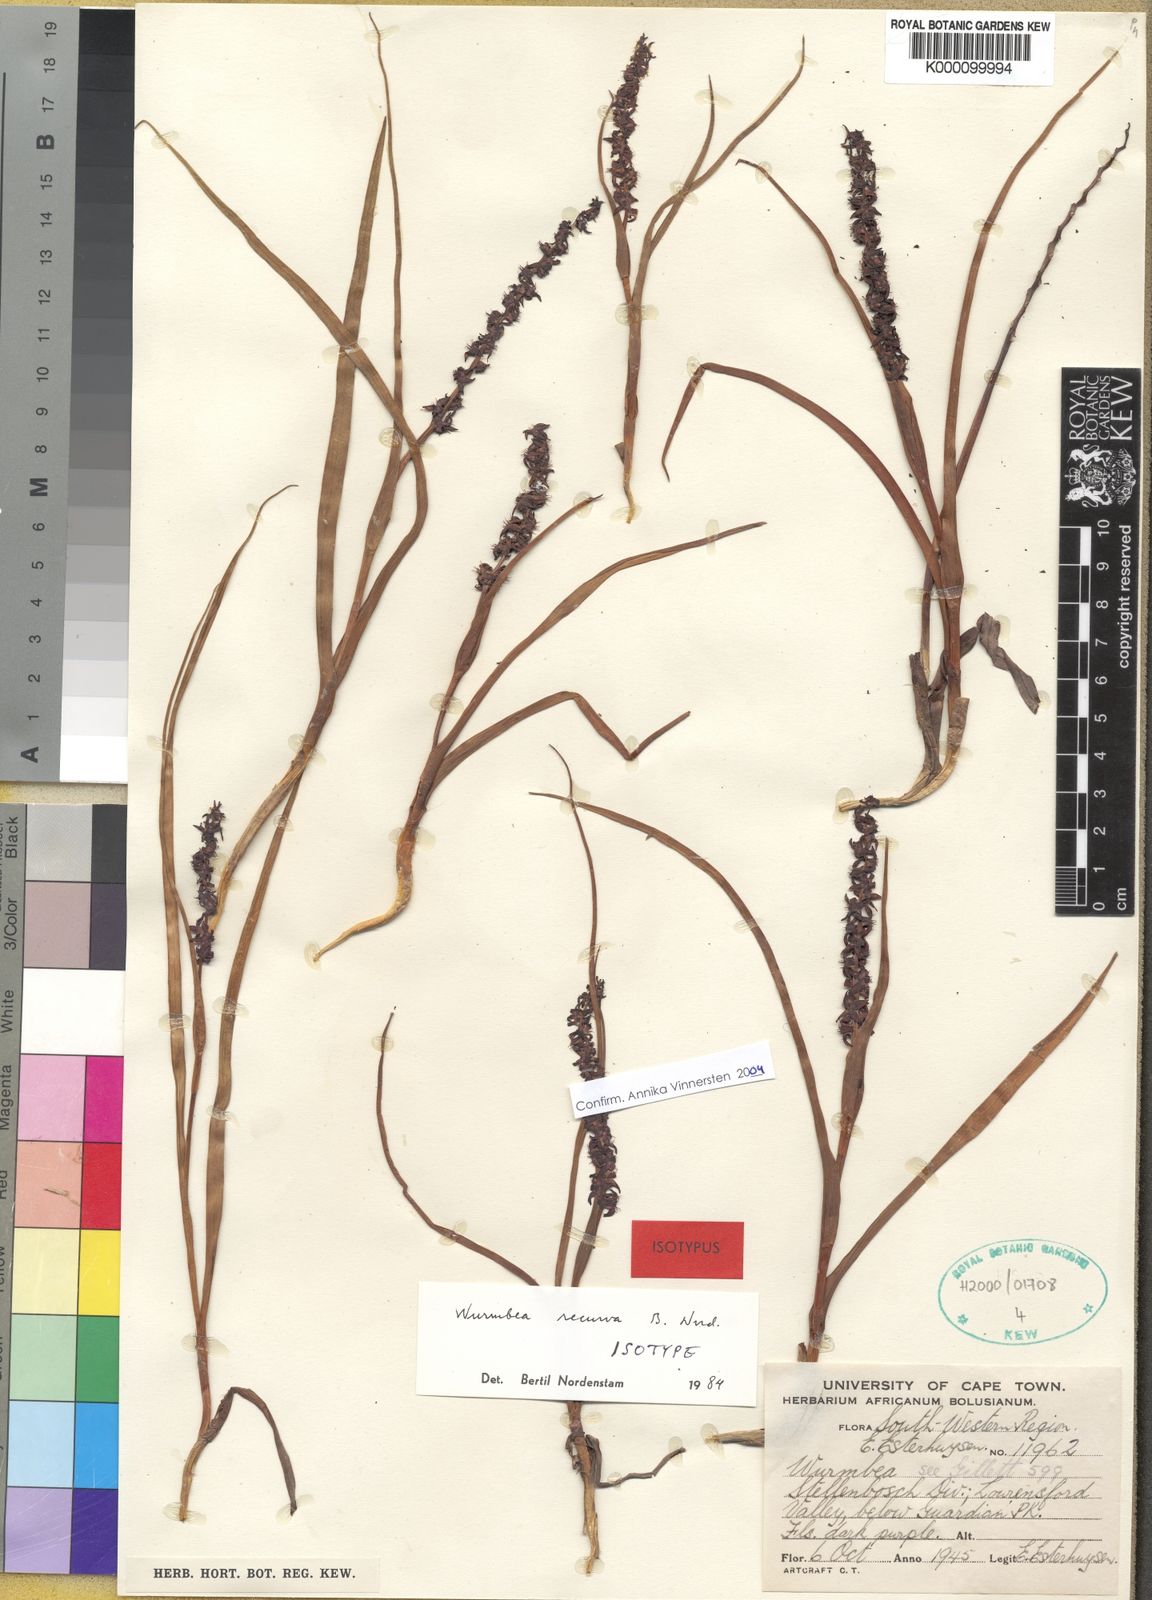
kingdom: Plantae
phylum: Tracheophyta
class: Liliopsida
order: Liliales
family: Colchicaceae
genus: Wurmbea
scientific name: Wurmbea recurva
